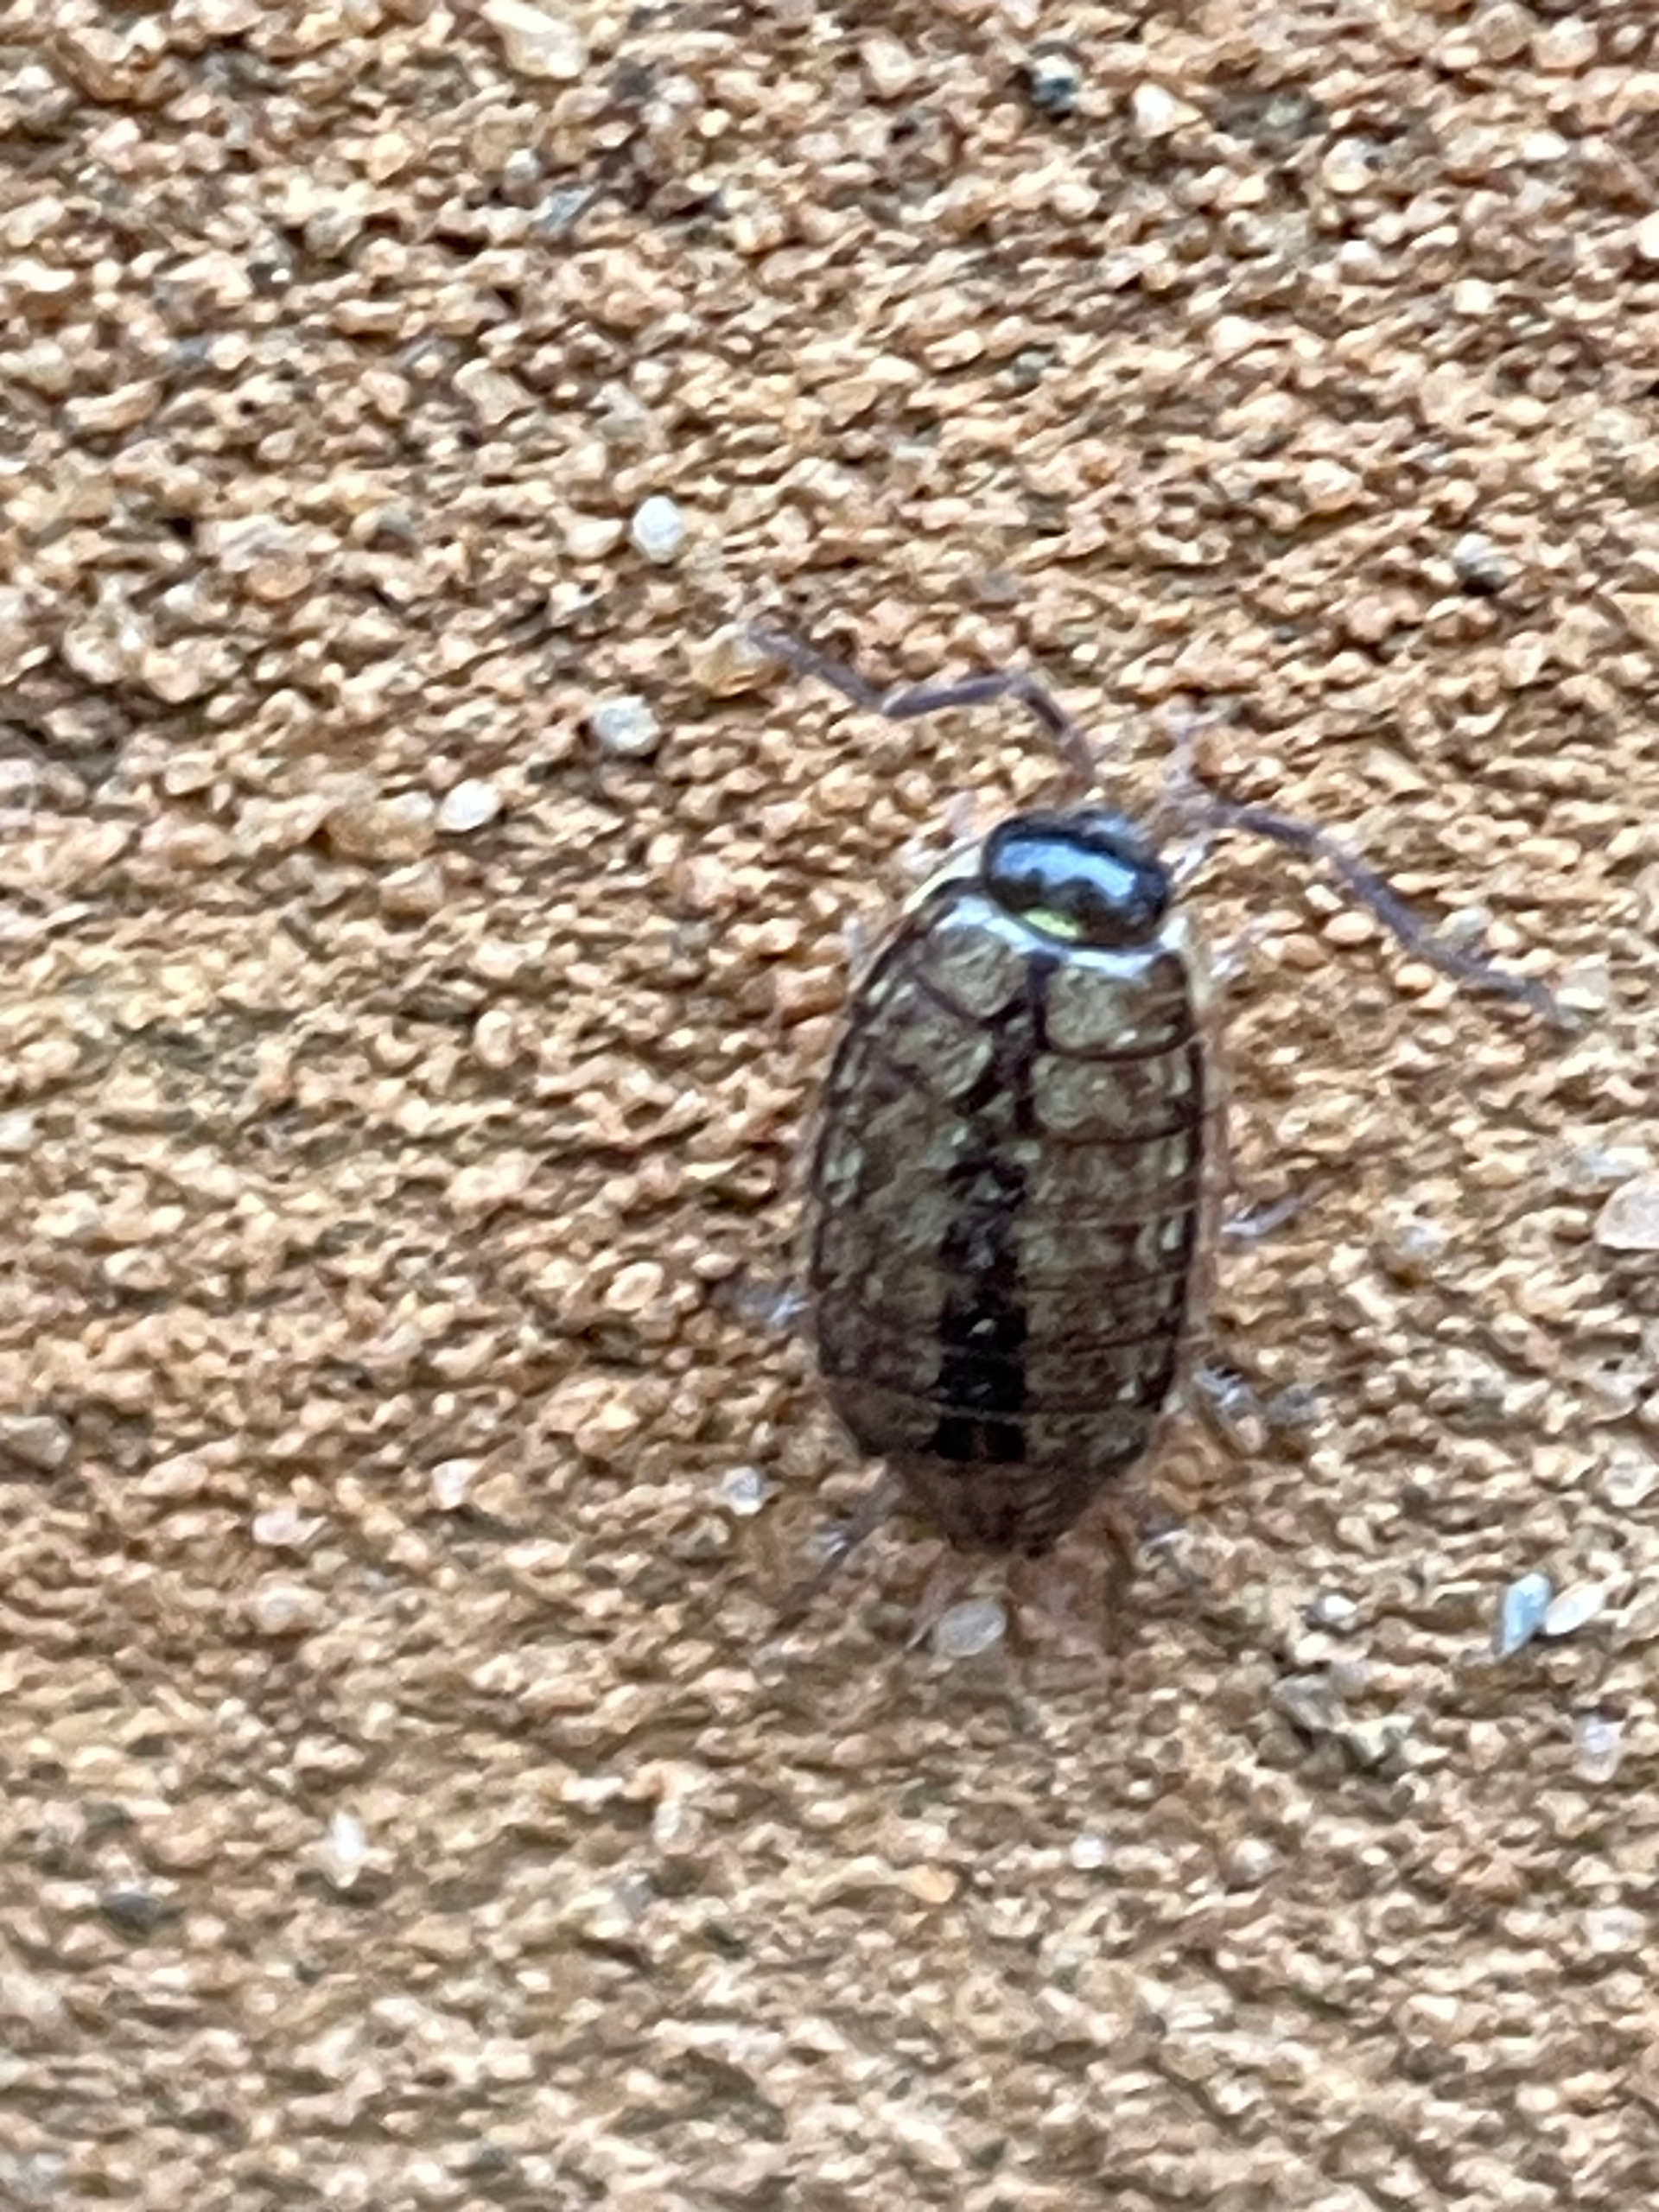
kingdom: Animalia
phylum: Arthropoda
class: Malacostraca
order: Isopoda
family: Philosciidae
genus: Philoscia
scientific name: Philoscia muscorum
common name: Langbenet bænkebider
